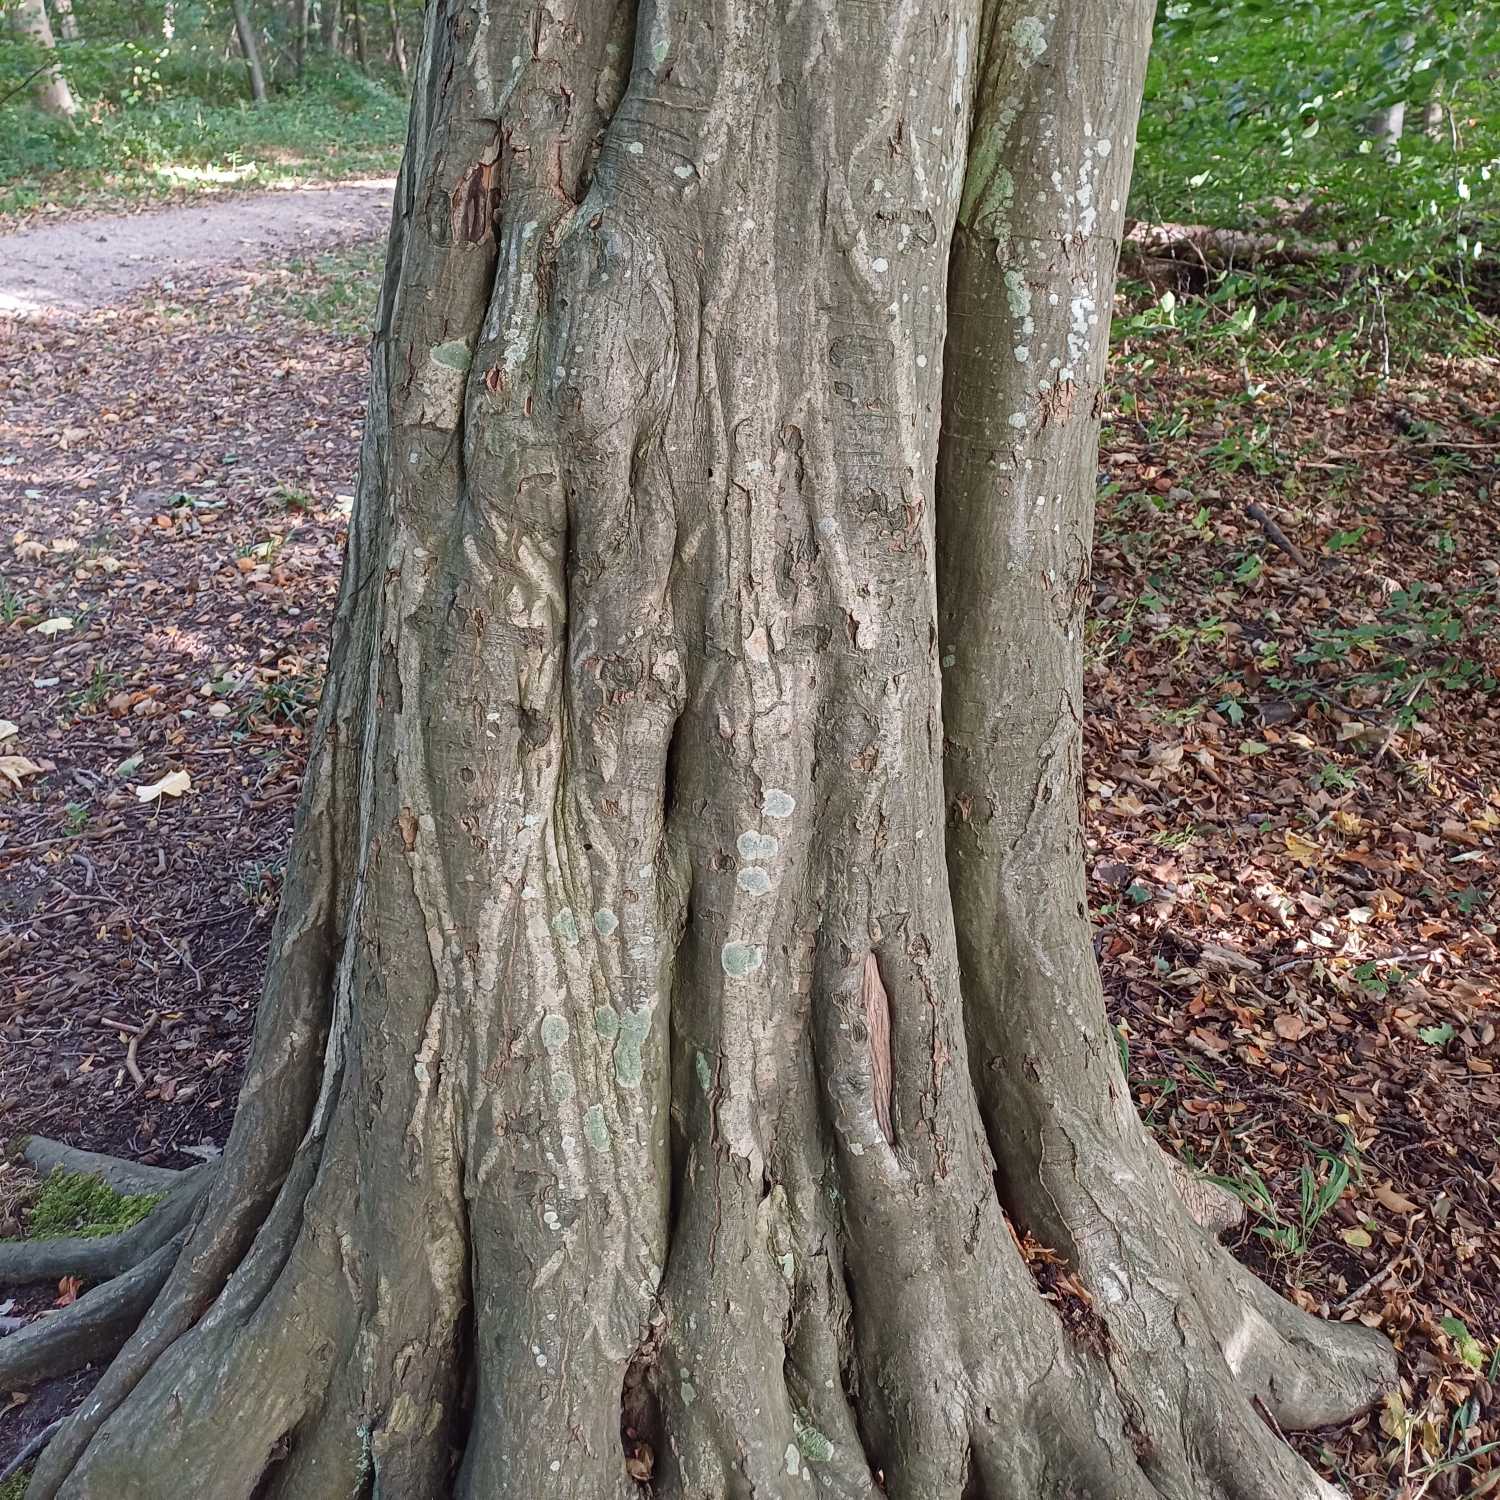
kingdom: Plantae
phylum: Tracheophyta
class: Magnoliopsida
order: Fagales
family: Betulaceae
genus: Carpinus
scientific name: Carpinus betulus
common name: Avnbøg
